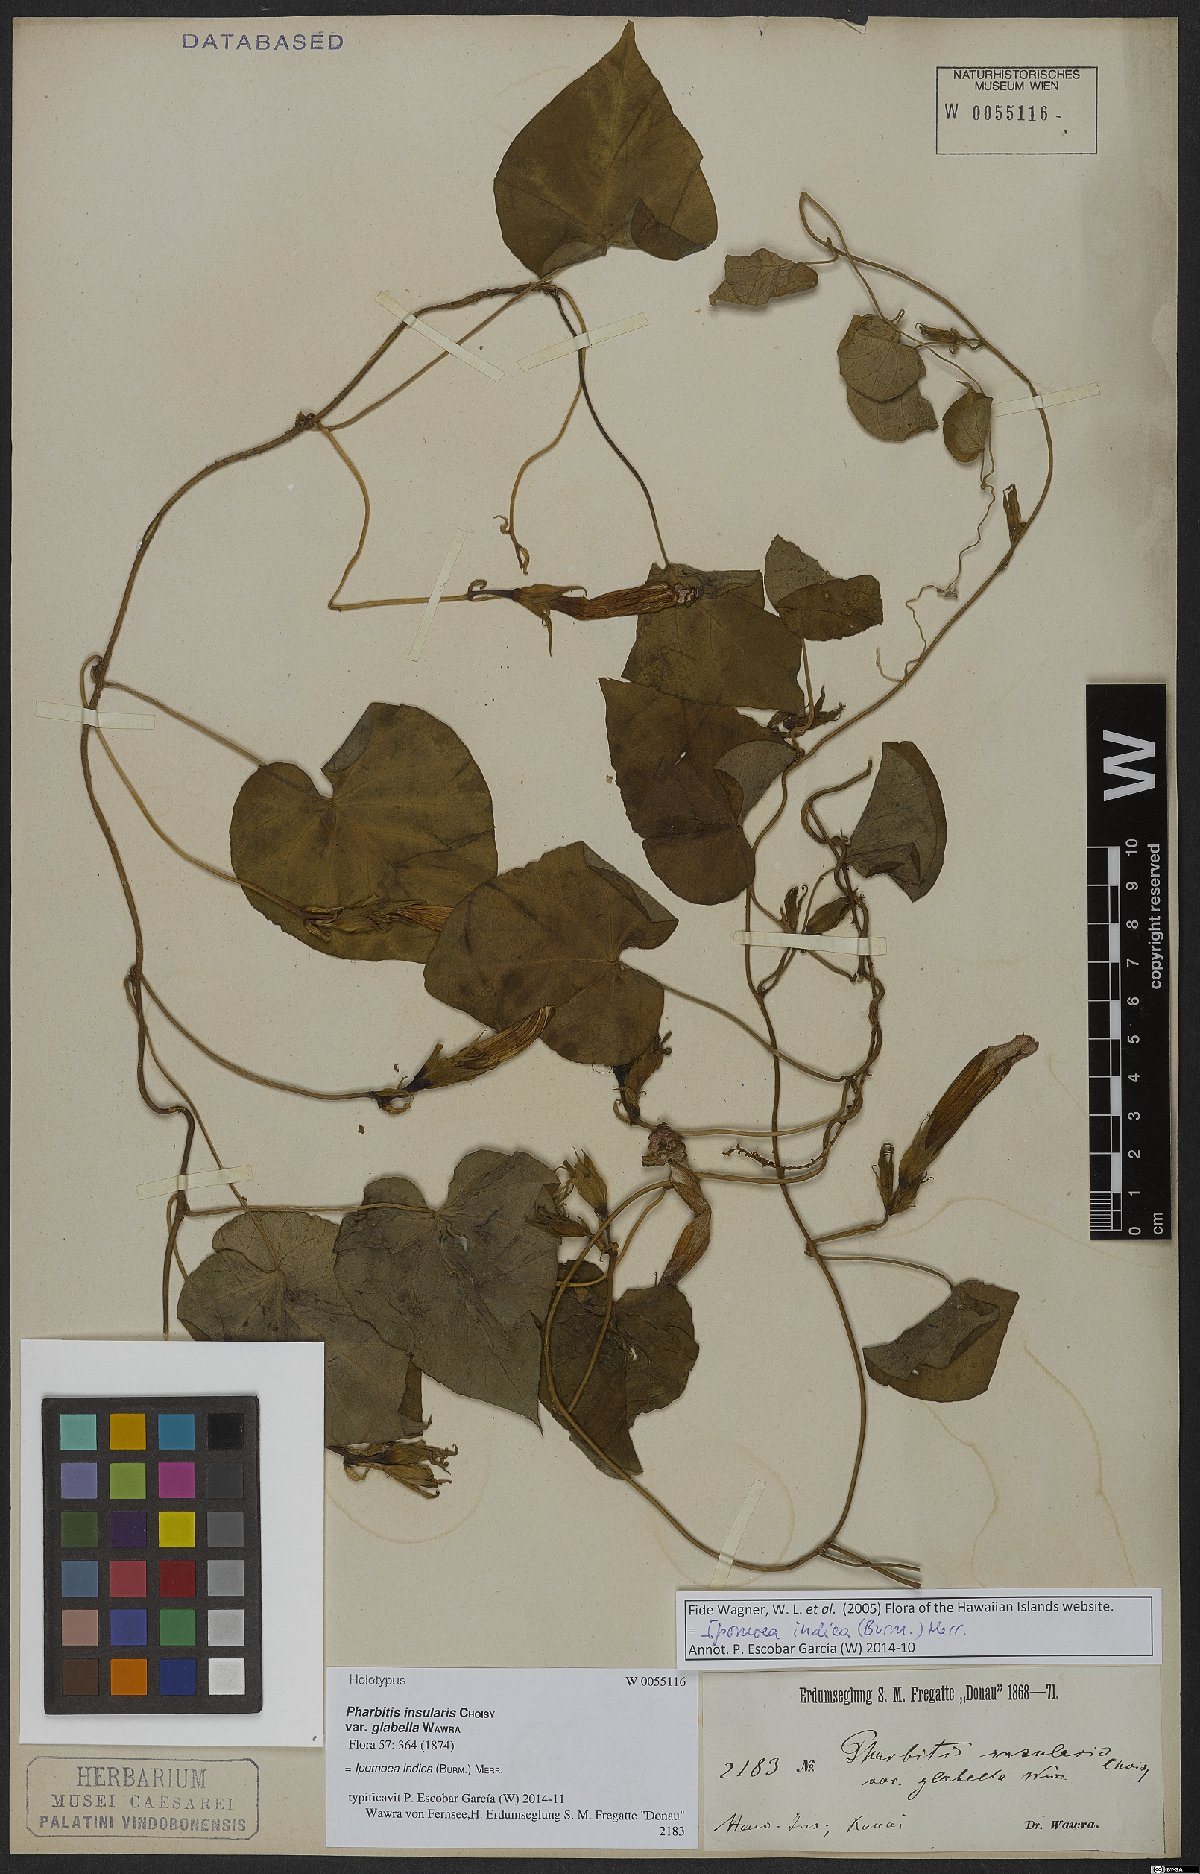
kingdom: Plantae
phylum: Tracheophyta
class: Magnoliopsida
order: Solanales
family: Convolvulaceae
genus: Ipomoea
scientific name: Ipomoea indica
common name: Blue dawnflower
